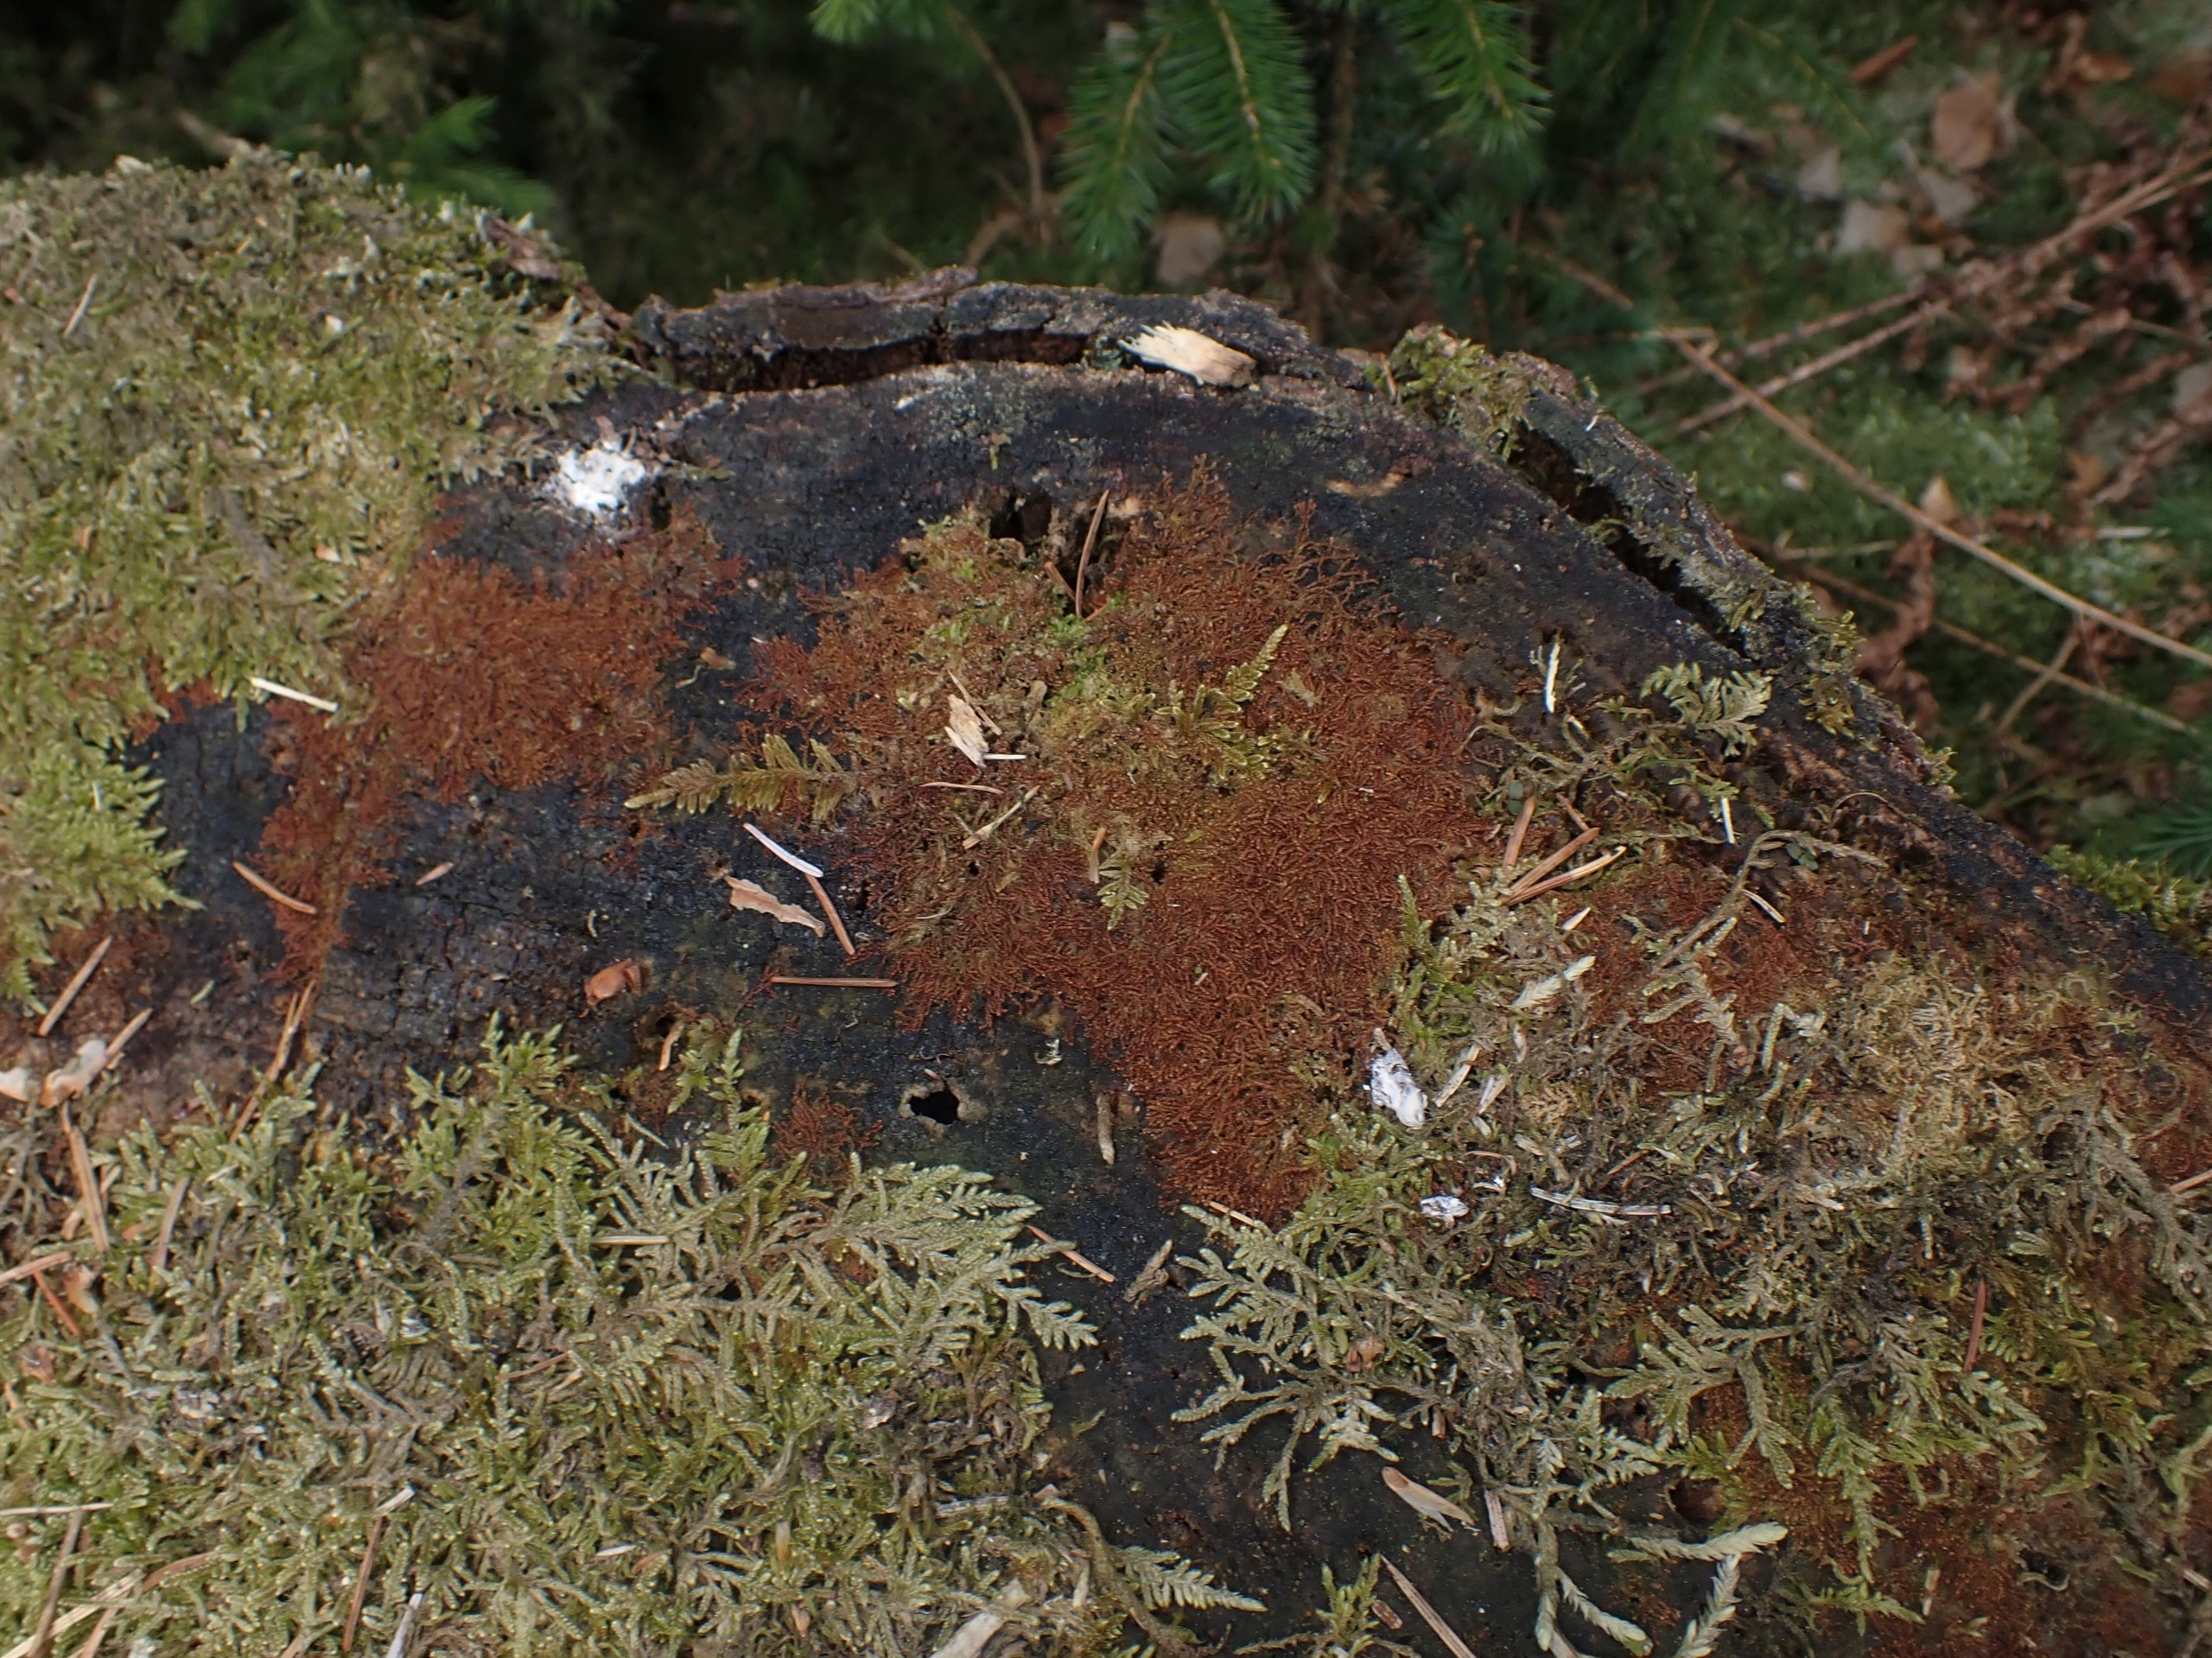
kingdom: Plantae
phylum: Marchantiophyta
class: Jungermanniopsida
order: Jungermanniales
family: Cephaloziaceae
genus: Nowellia
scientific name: Nowellia curvifolia
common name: Krumbladet stødmos
